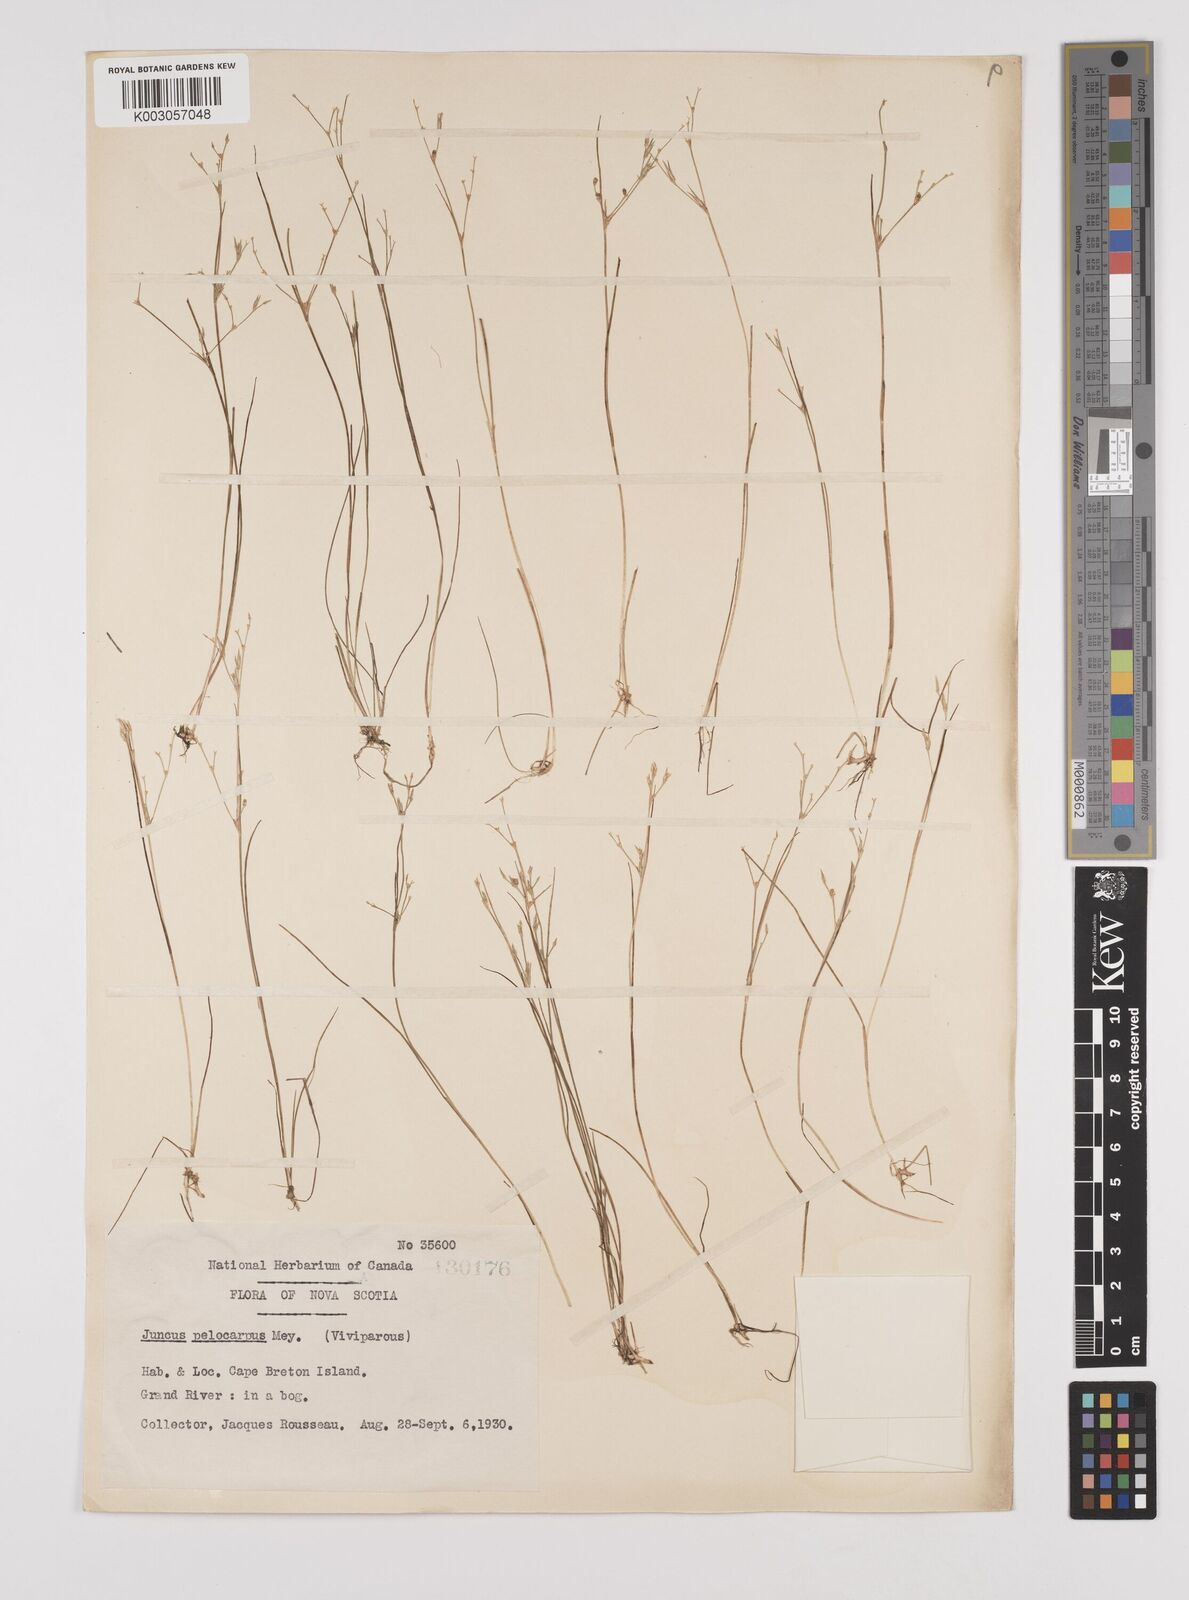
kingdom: Plantae
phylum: Tracheophyta
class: Liliopsida
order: Poales
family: Juncaceae
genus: Juncus
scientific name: Juncus pelocarpus
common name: Brown-fruited rush
